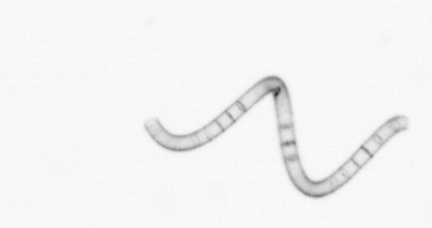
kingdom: Chromista
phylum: Ochrophyta
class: Bacillariophyceae
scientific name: Bacillariophyceae
